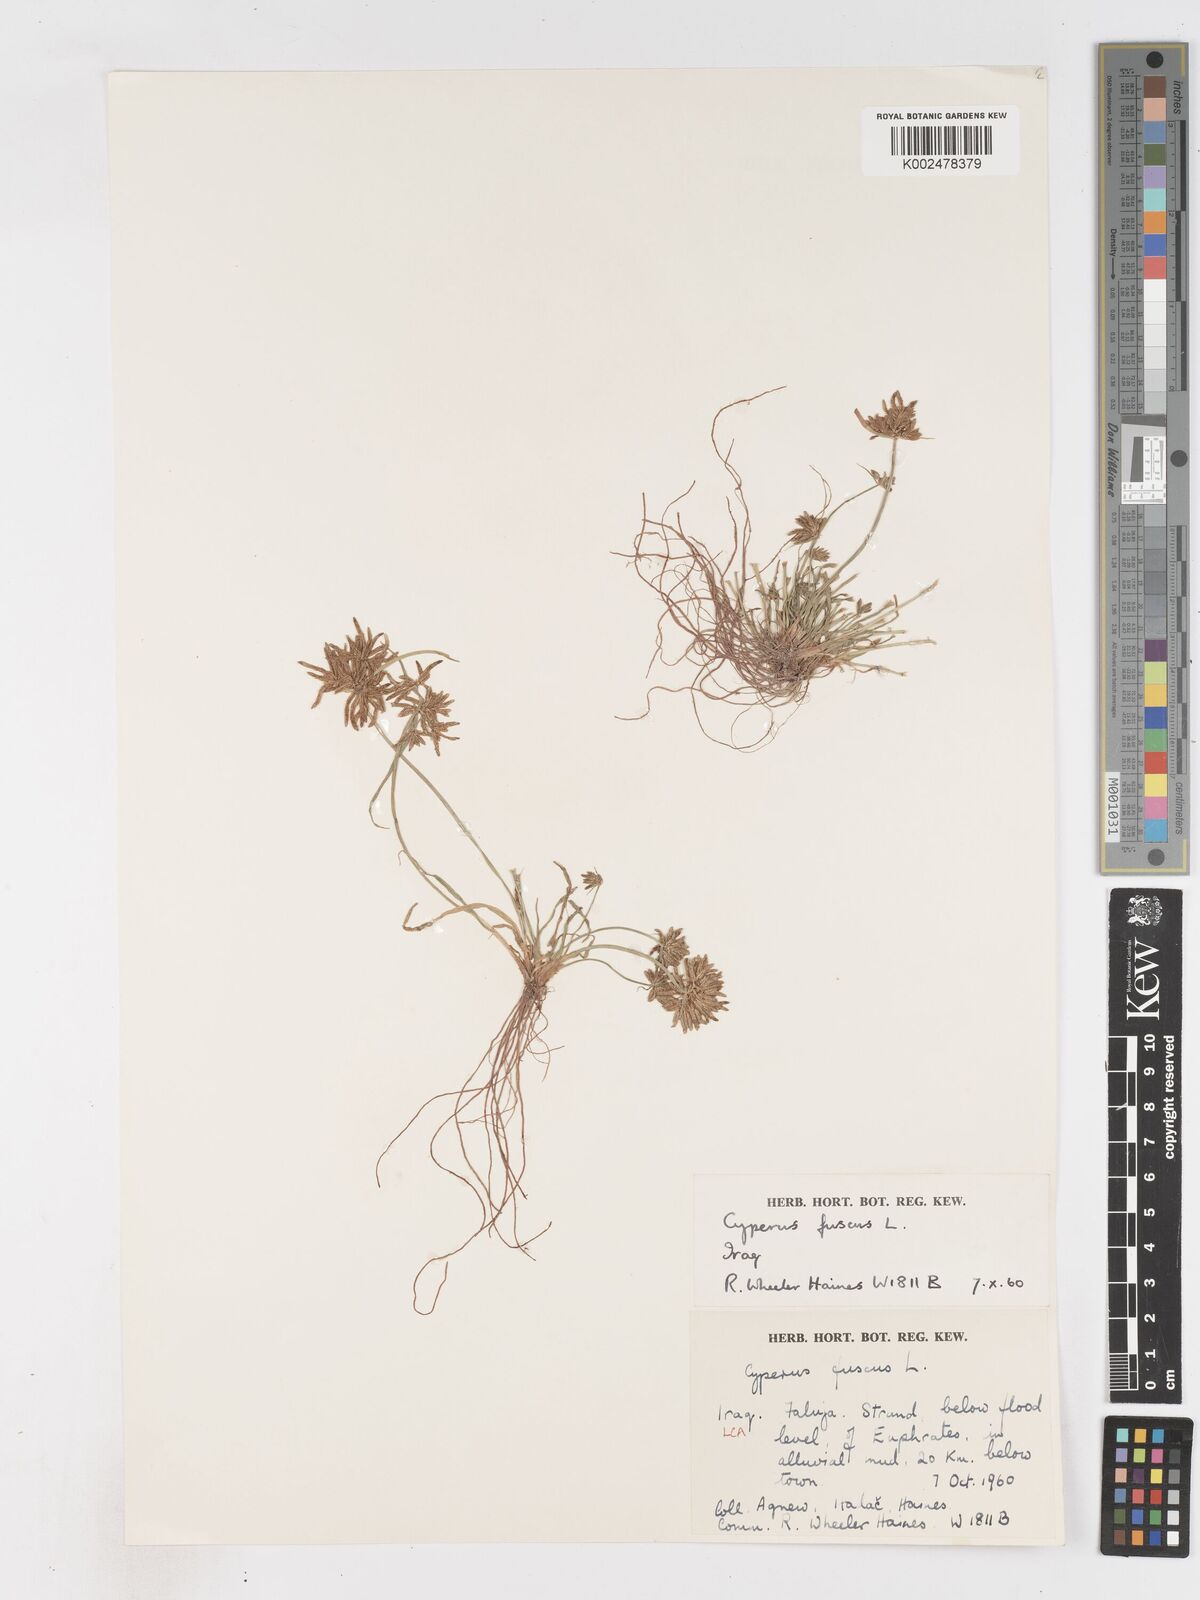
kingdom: Plantae
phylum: Tracheophyta
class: Liliopsida
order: Poales
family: Cyperaceae
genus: Cyperus
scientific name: Cyperus fuscus
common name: Brown galingale
